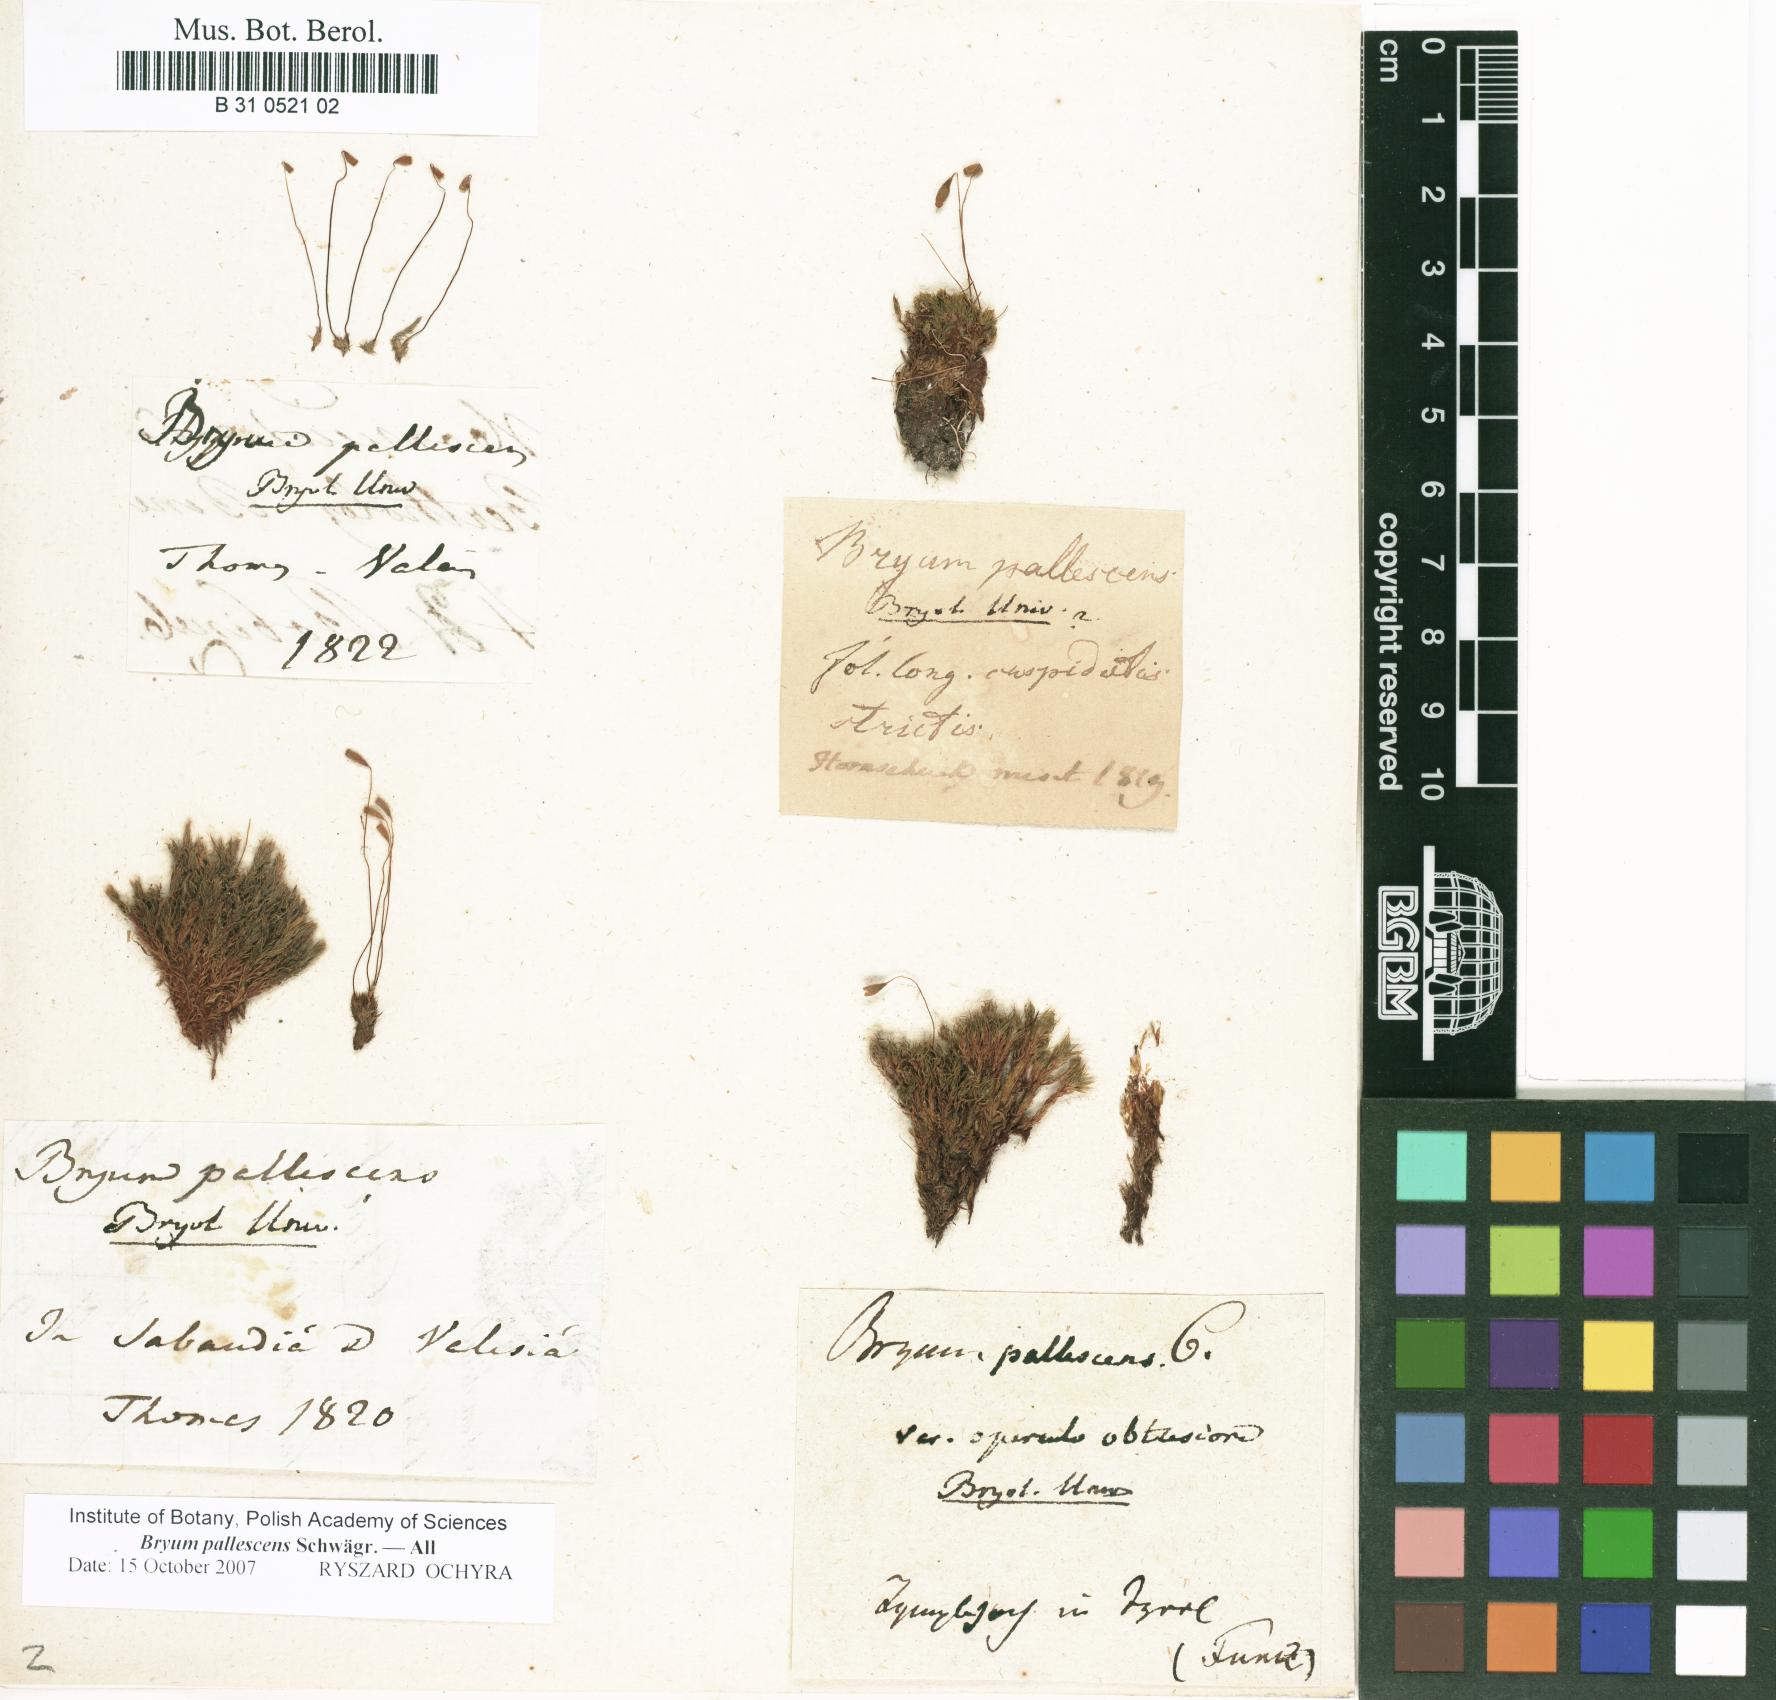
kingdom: Plantae
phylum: Bryophyta
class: Bryopsida
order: Bryales
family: Bryaceae
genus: Ptychostomum
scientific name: Ptychostomum pallescens
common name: Tall-clustered thread-moss
